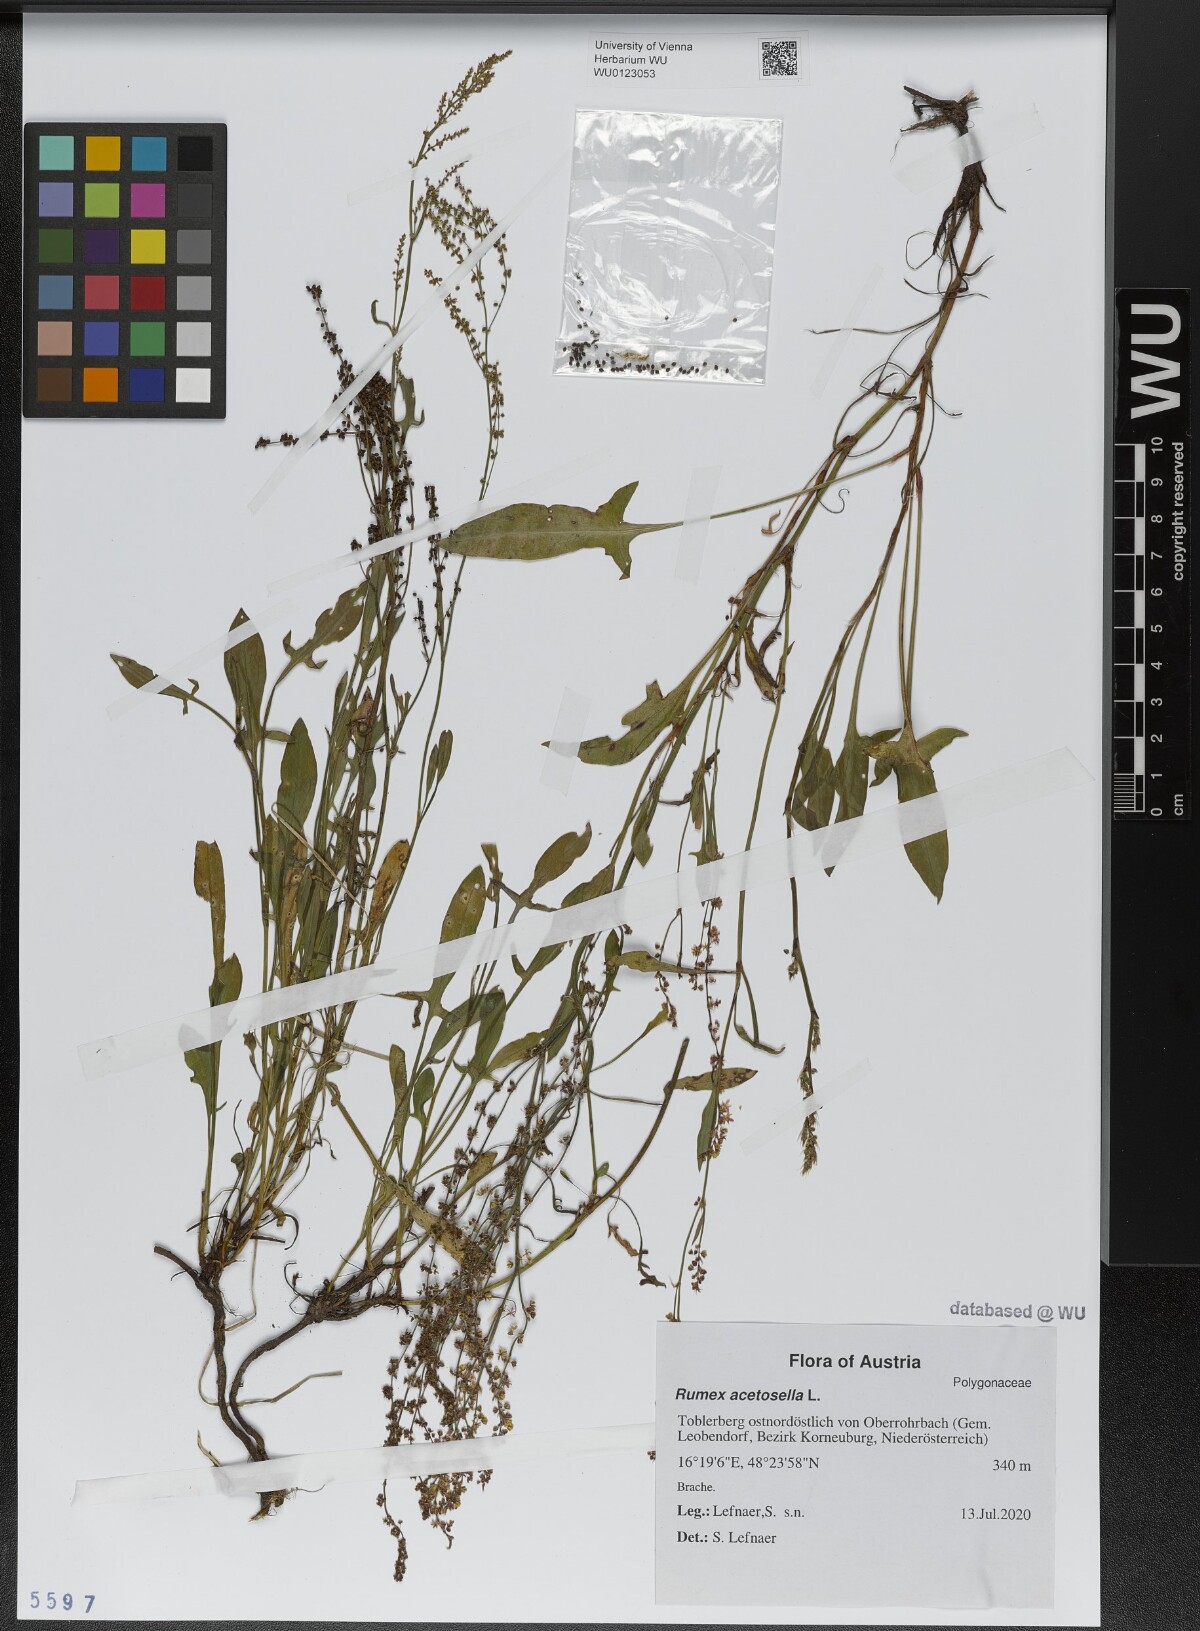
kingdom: Plantae
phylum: Tracheophyta
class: Magnoliopsida
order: Caryophyllales
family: Polygonaceae
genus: Rumex
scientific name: Rumex acetosella
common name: Common sheep sorrel
